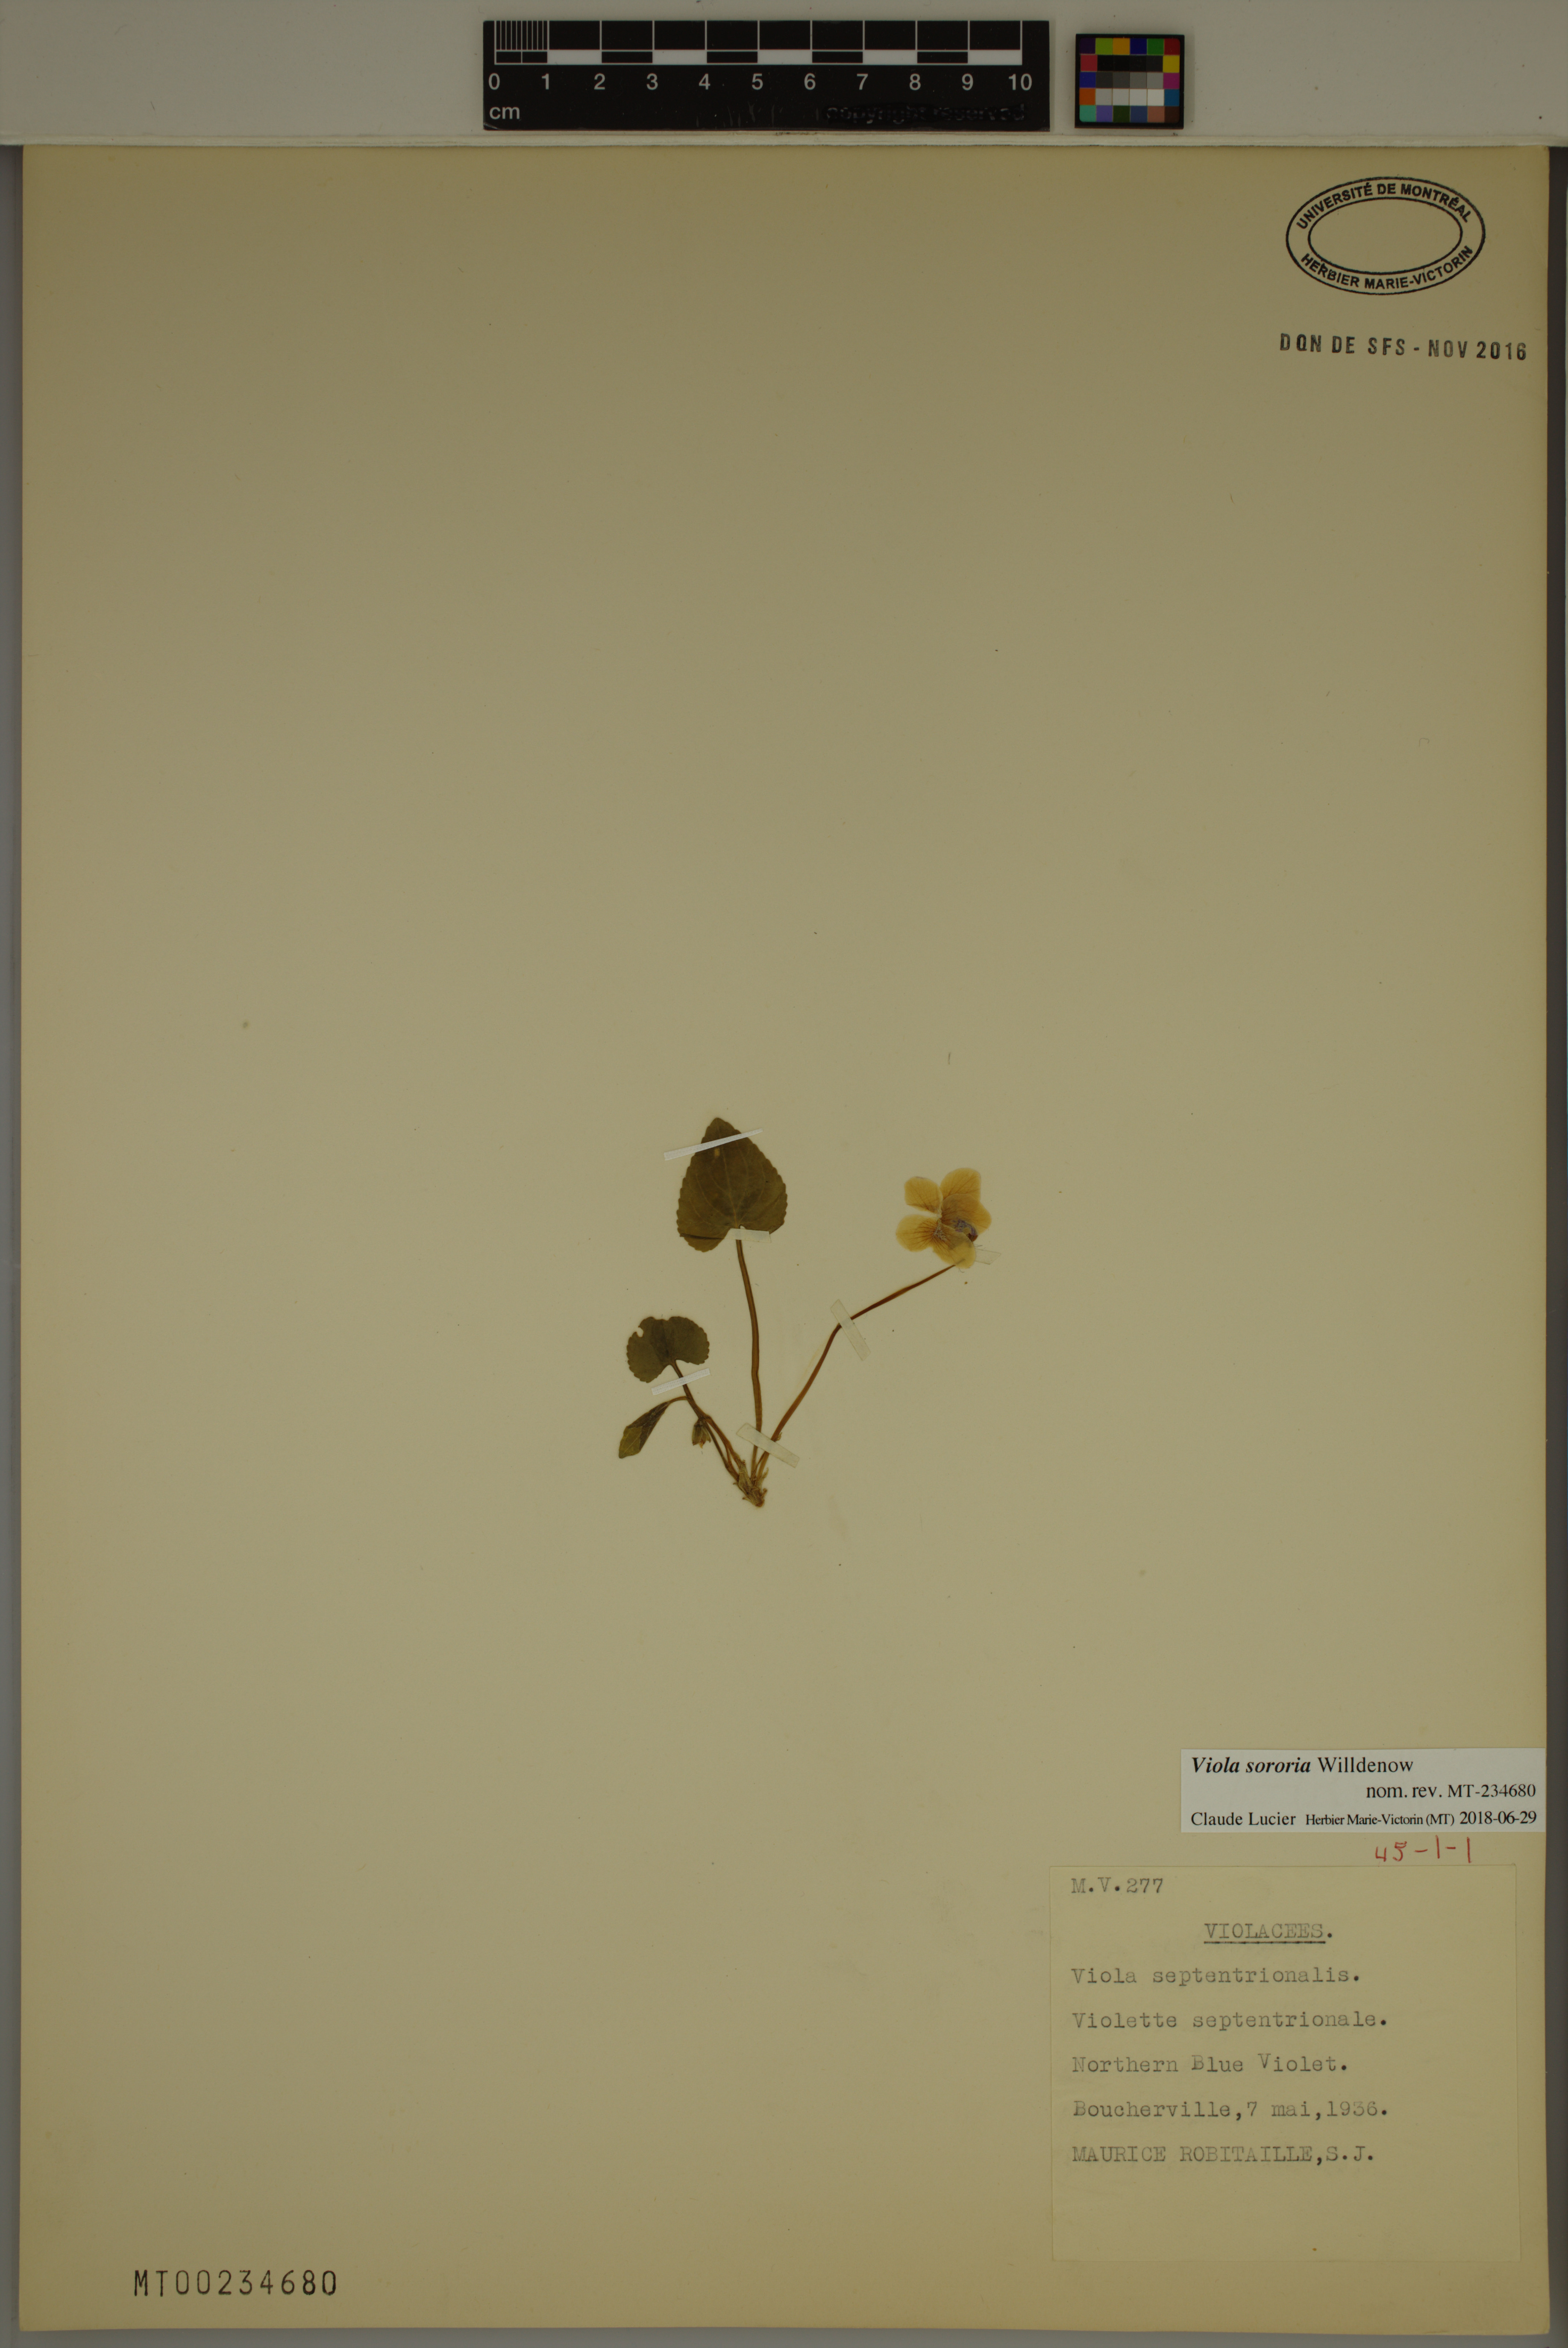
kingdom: Plantae
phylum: Tracheophyta
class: Magnoliopsida
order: Malpighiales
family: Violaceae
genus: Viola
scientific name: Viola sororia
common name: Dooryard violet
